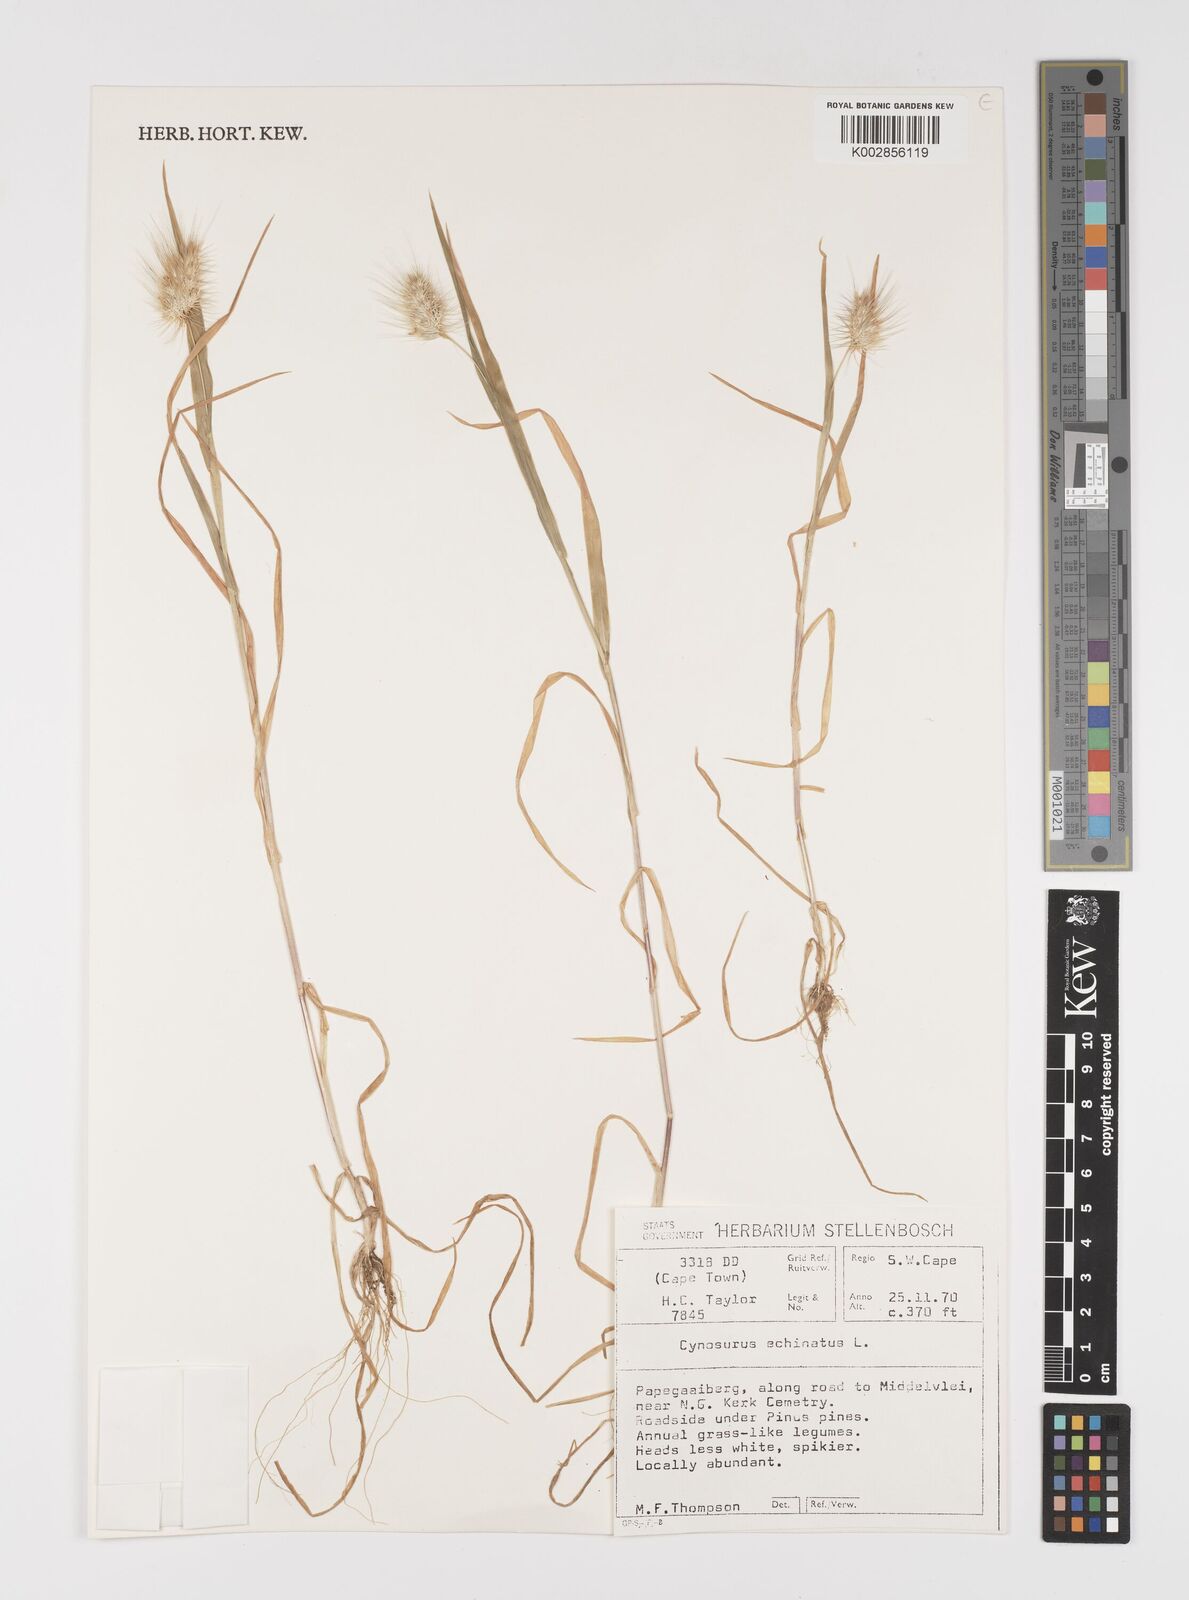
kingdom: Plantae
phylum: Tracheophyta
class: Liliopsida
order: Poales
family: Poaceae
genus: Cynosurus
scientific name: Cynosurus echinatus
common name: Rough dog's-tail
